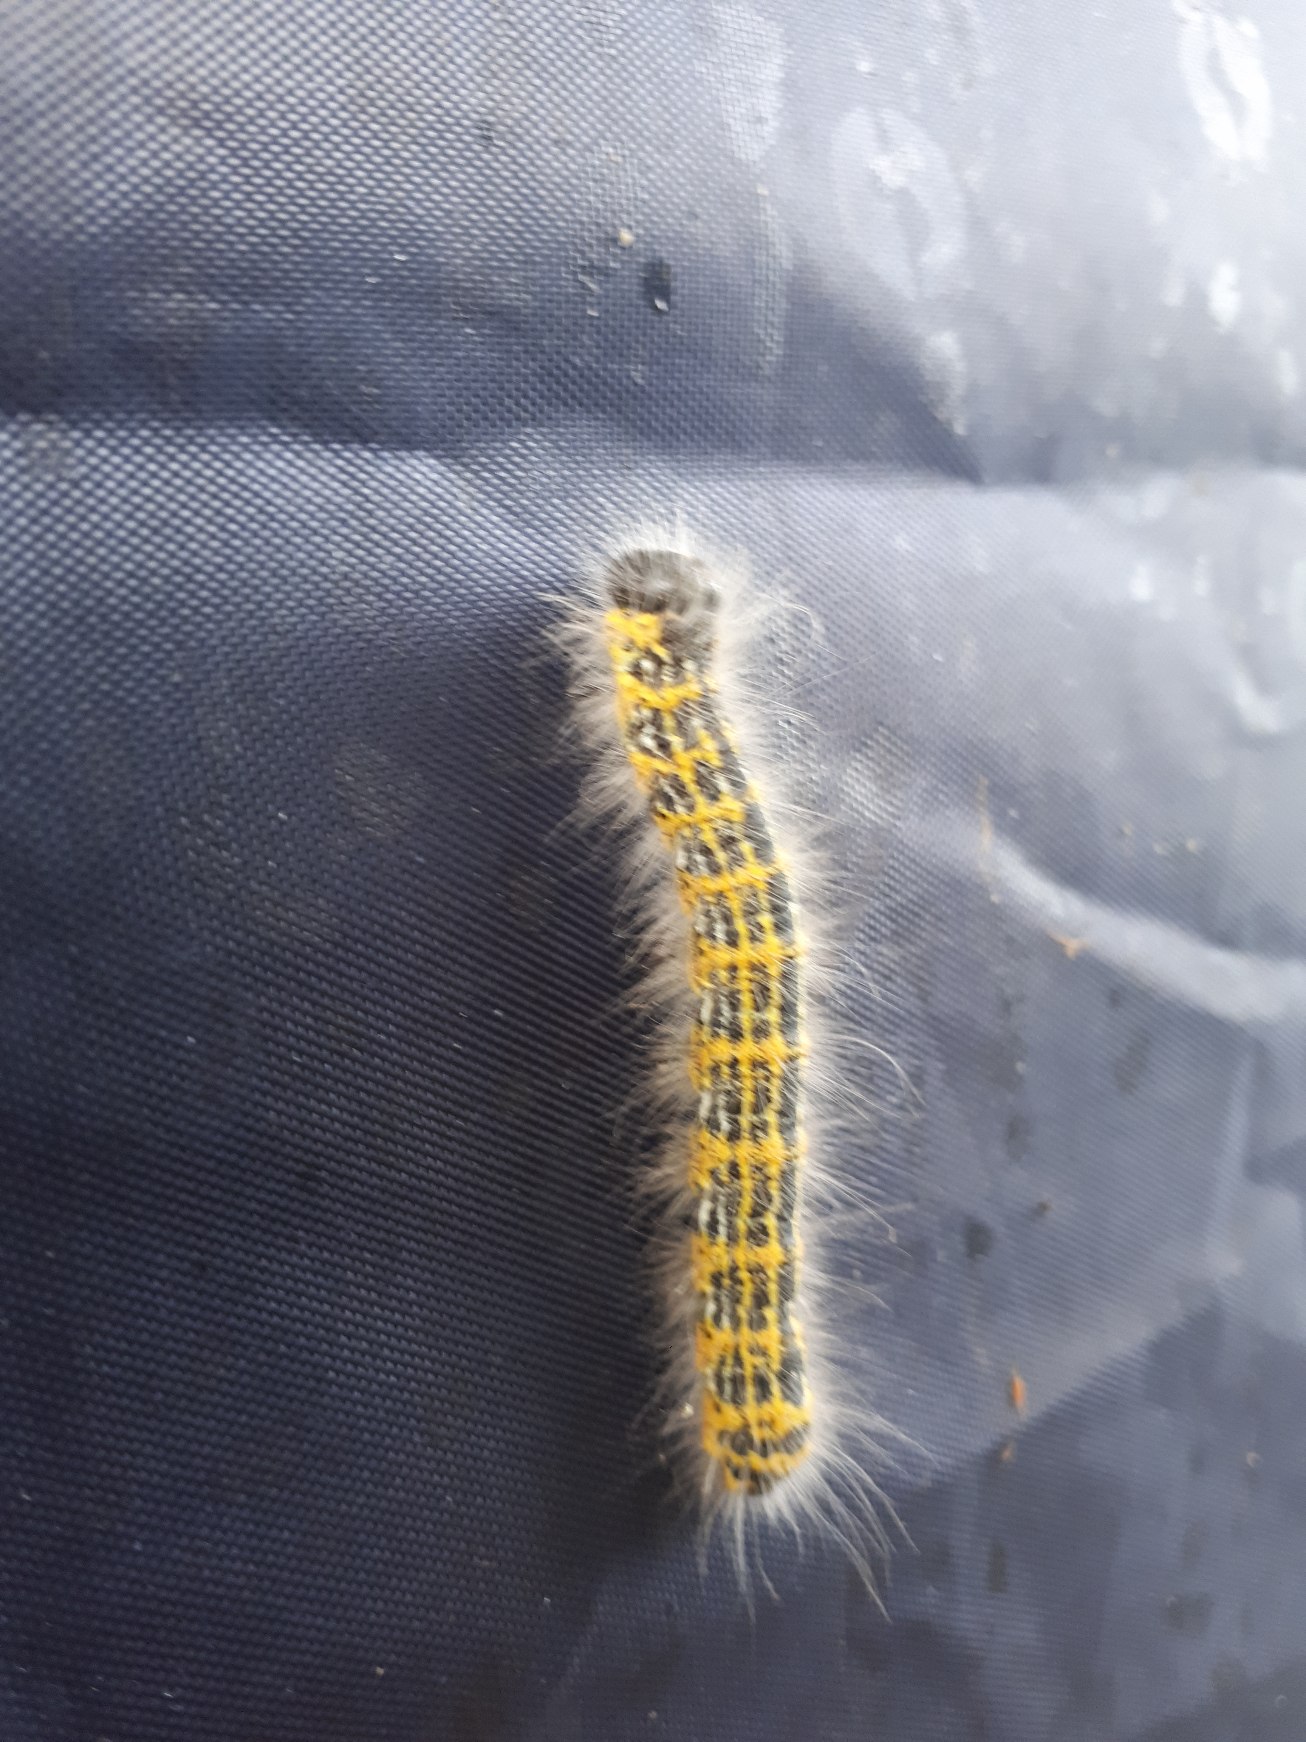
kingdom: Animalia
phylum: Arthropoda
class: Insecta
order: Lepidoptera
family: Notodontidae
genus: Phalera
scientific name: Phalera bucephala
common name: Måneplet
